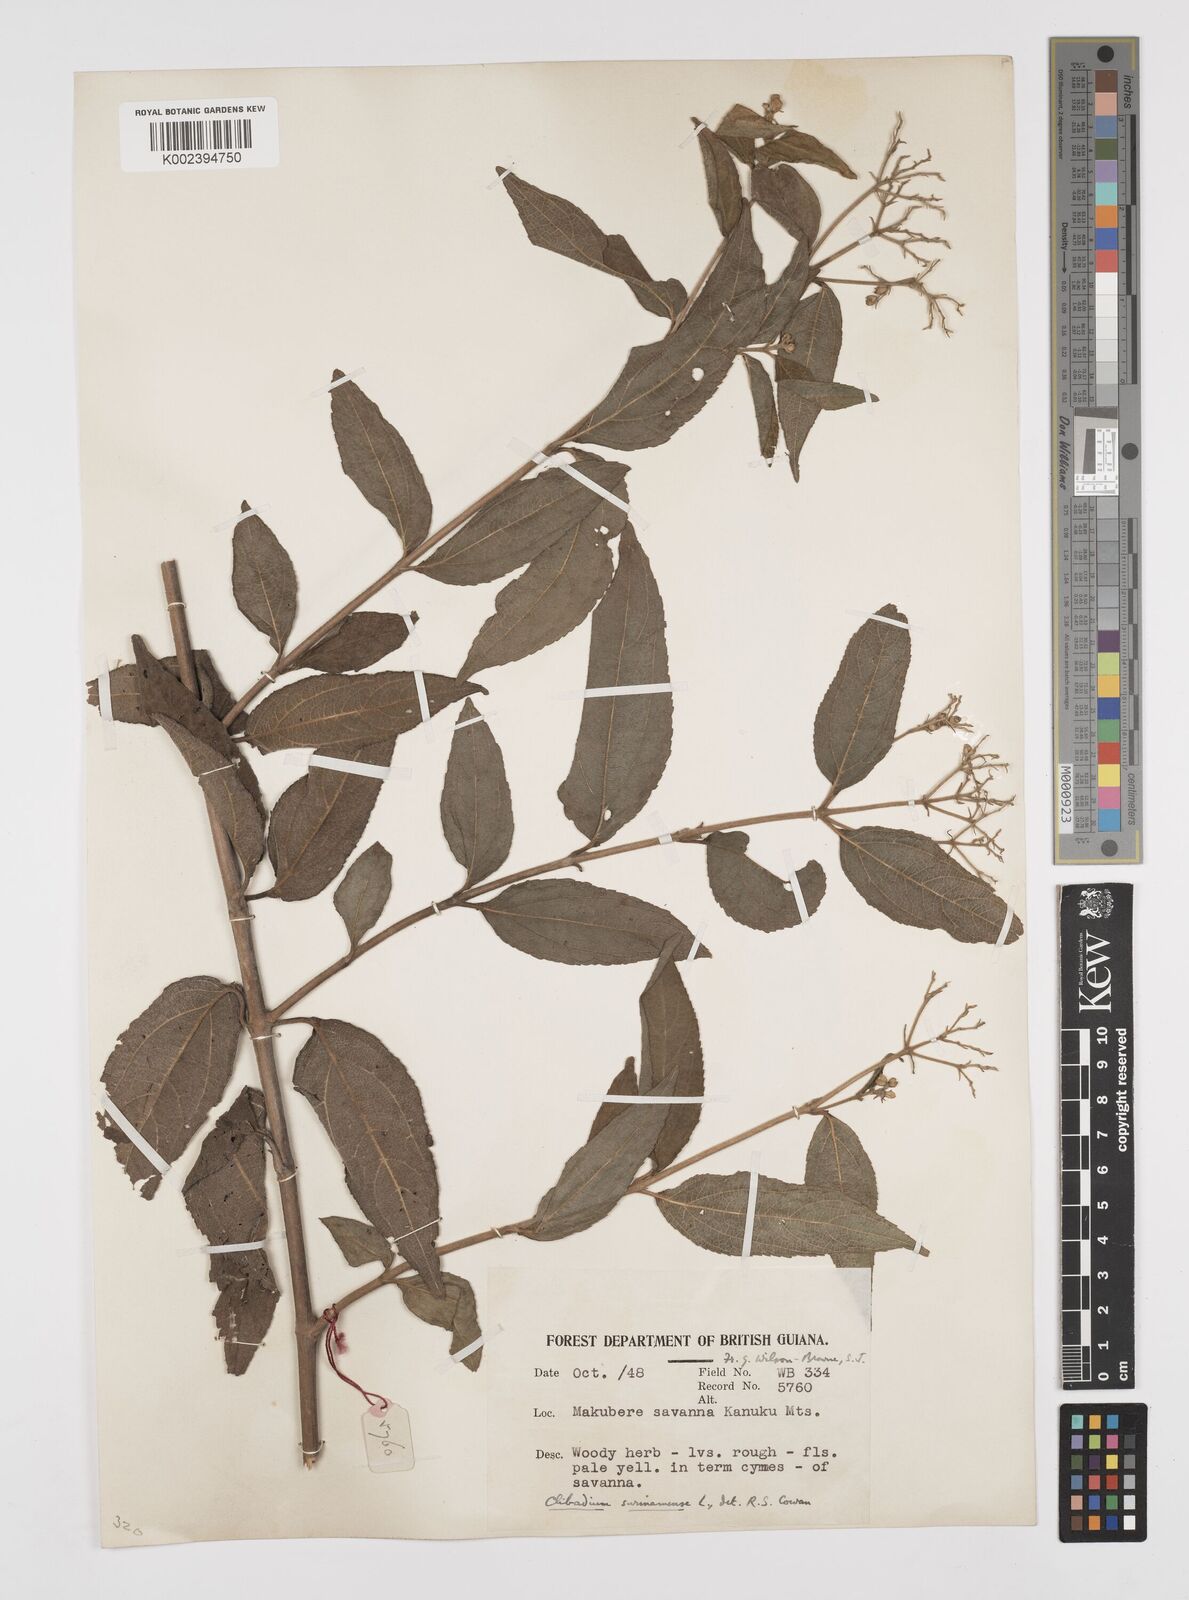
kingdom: Plantae
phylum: Tracheophyta
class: Magnoliopsida
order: Asterales
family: Asteraceae
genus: Clibadium
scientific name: Clibadium surinamense
